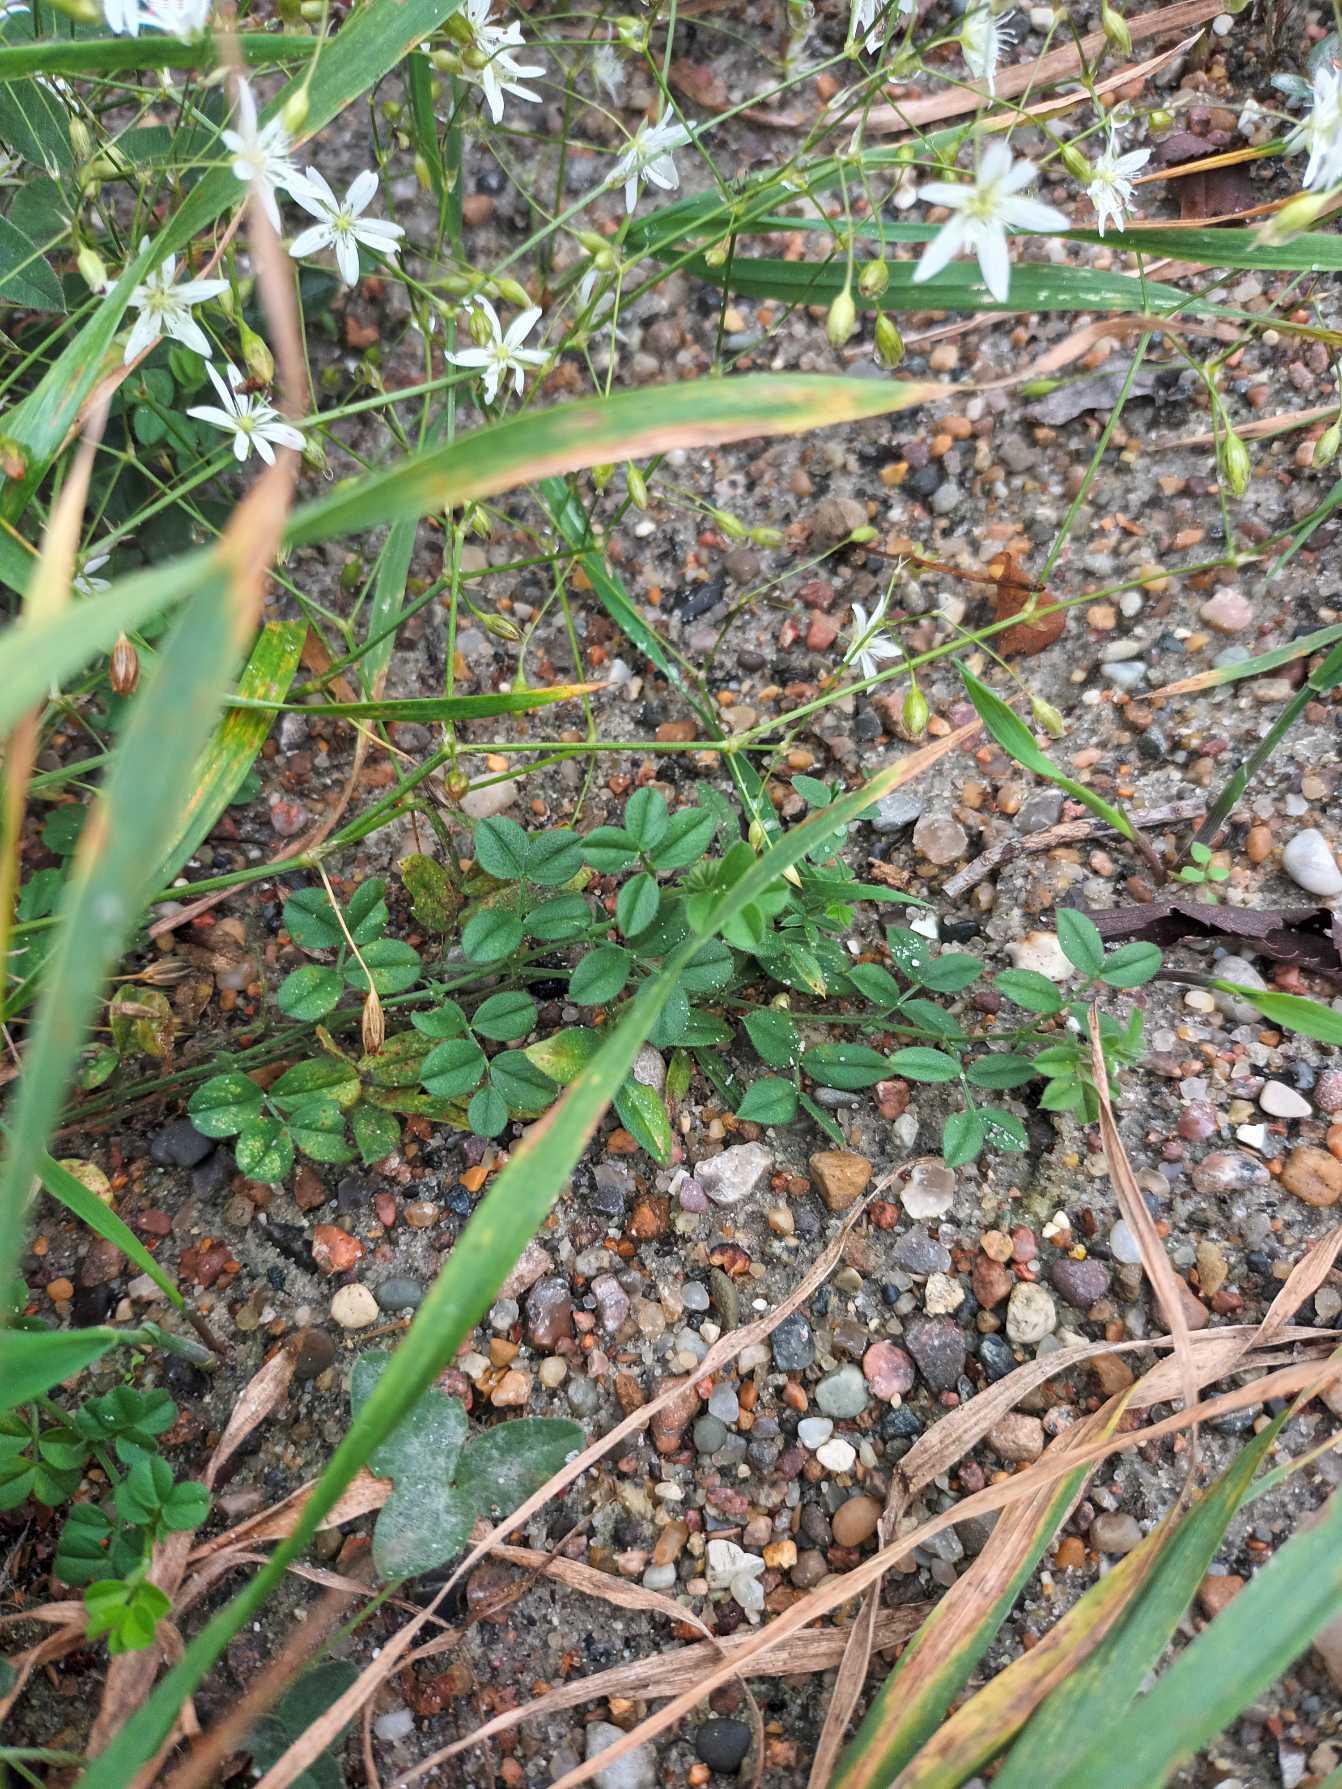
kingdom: Plantae
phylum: Tracheophyta
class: Magnoliopsida
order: Fabales
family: Fabaceae
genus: Vicia
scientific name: Vicia sativa
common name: Smalbladet vikke
